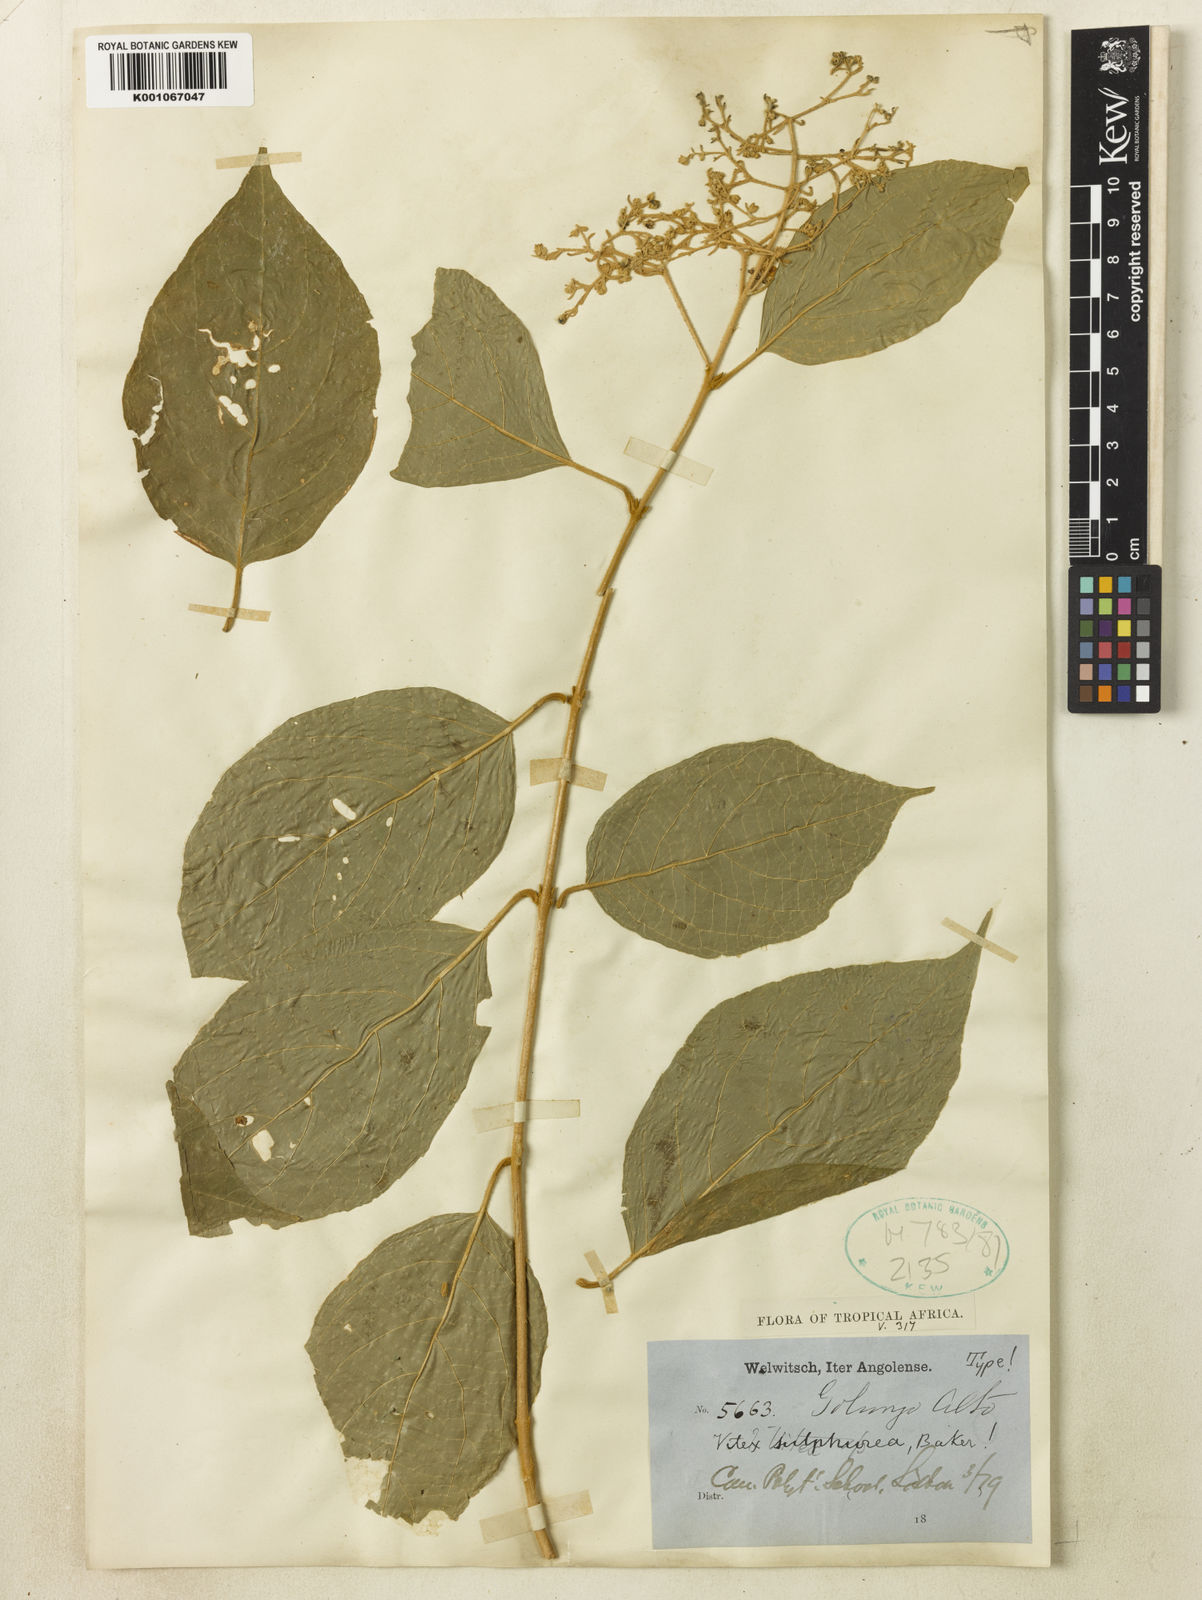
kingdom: Plantae
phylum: Tracheophyta
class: Magnoliopsida
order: Lamiales
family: Lamiaceae
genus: Premna
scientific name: Premna
